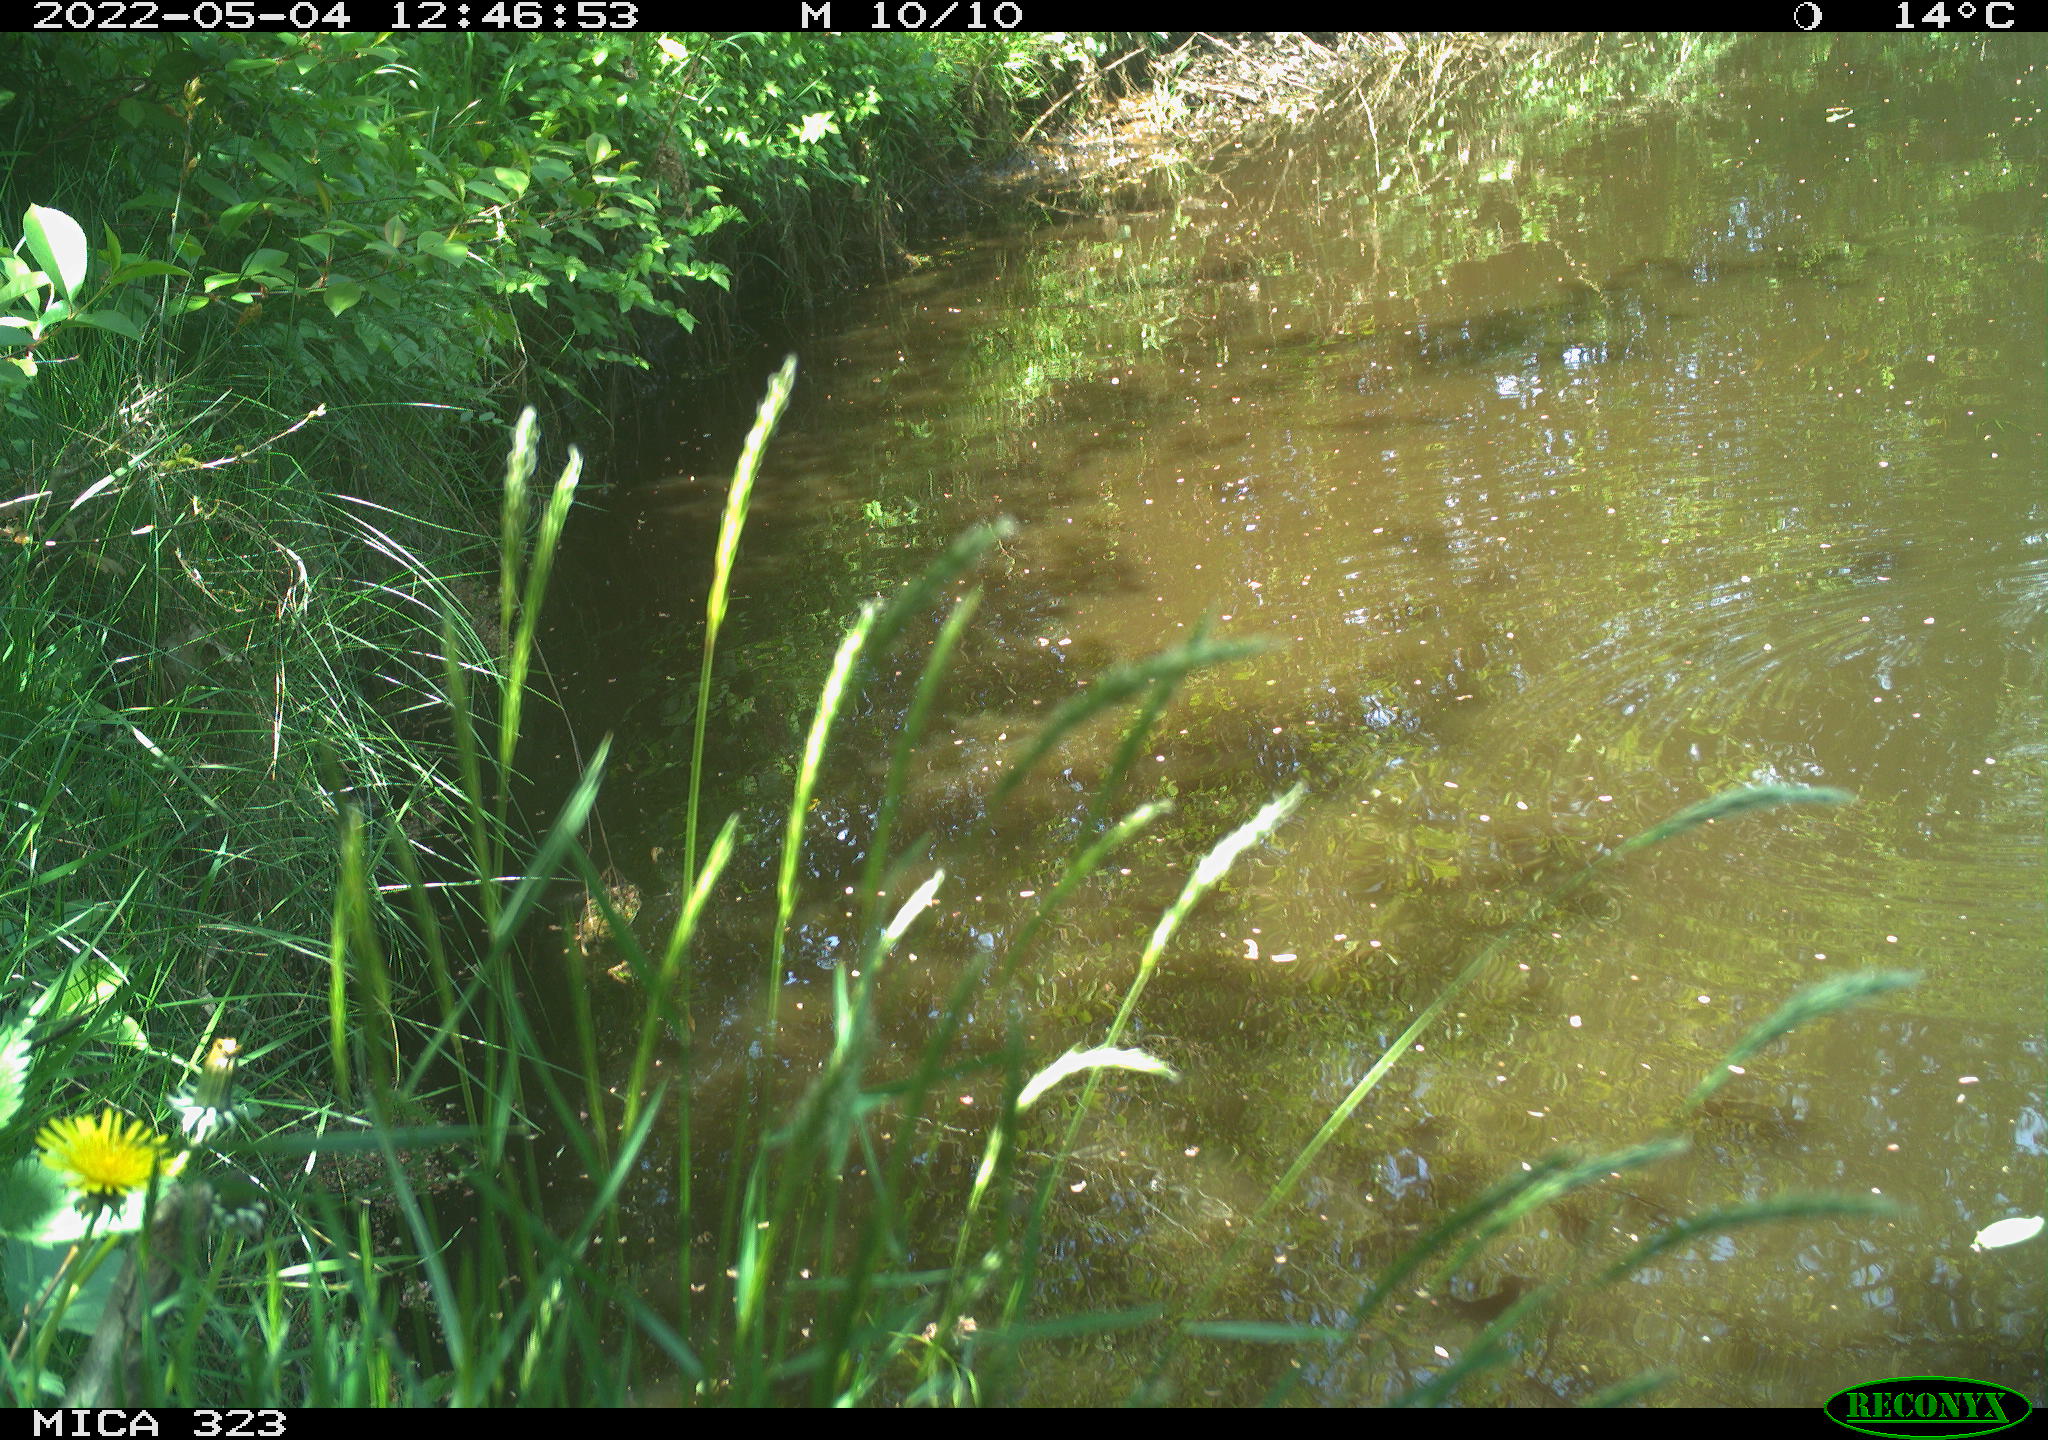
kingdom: Animalia
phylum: Chordata
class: Aves
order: Gruiformes
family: Rallidae
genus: Gallinula
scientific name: Gallinula chloropus
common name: Common moorhen
